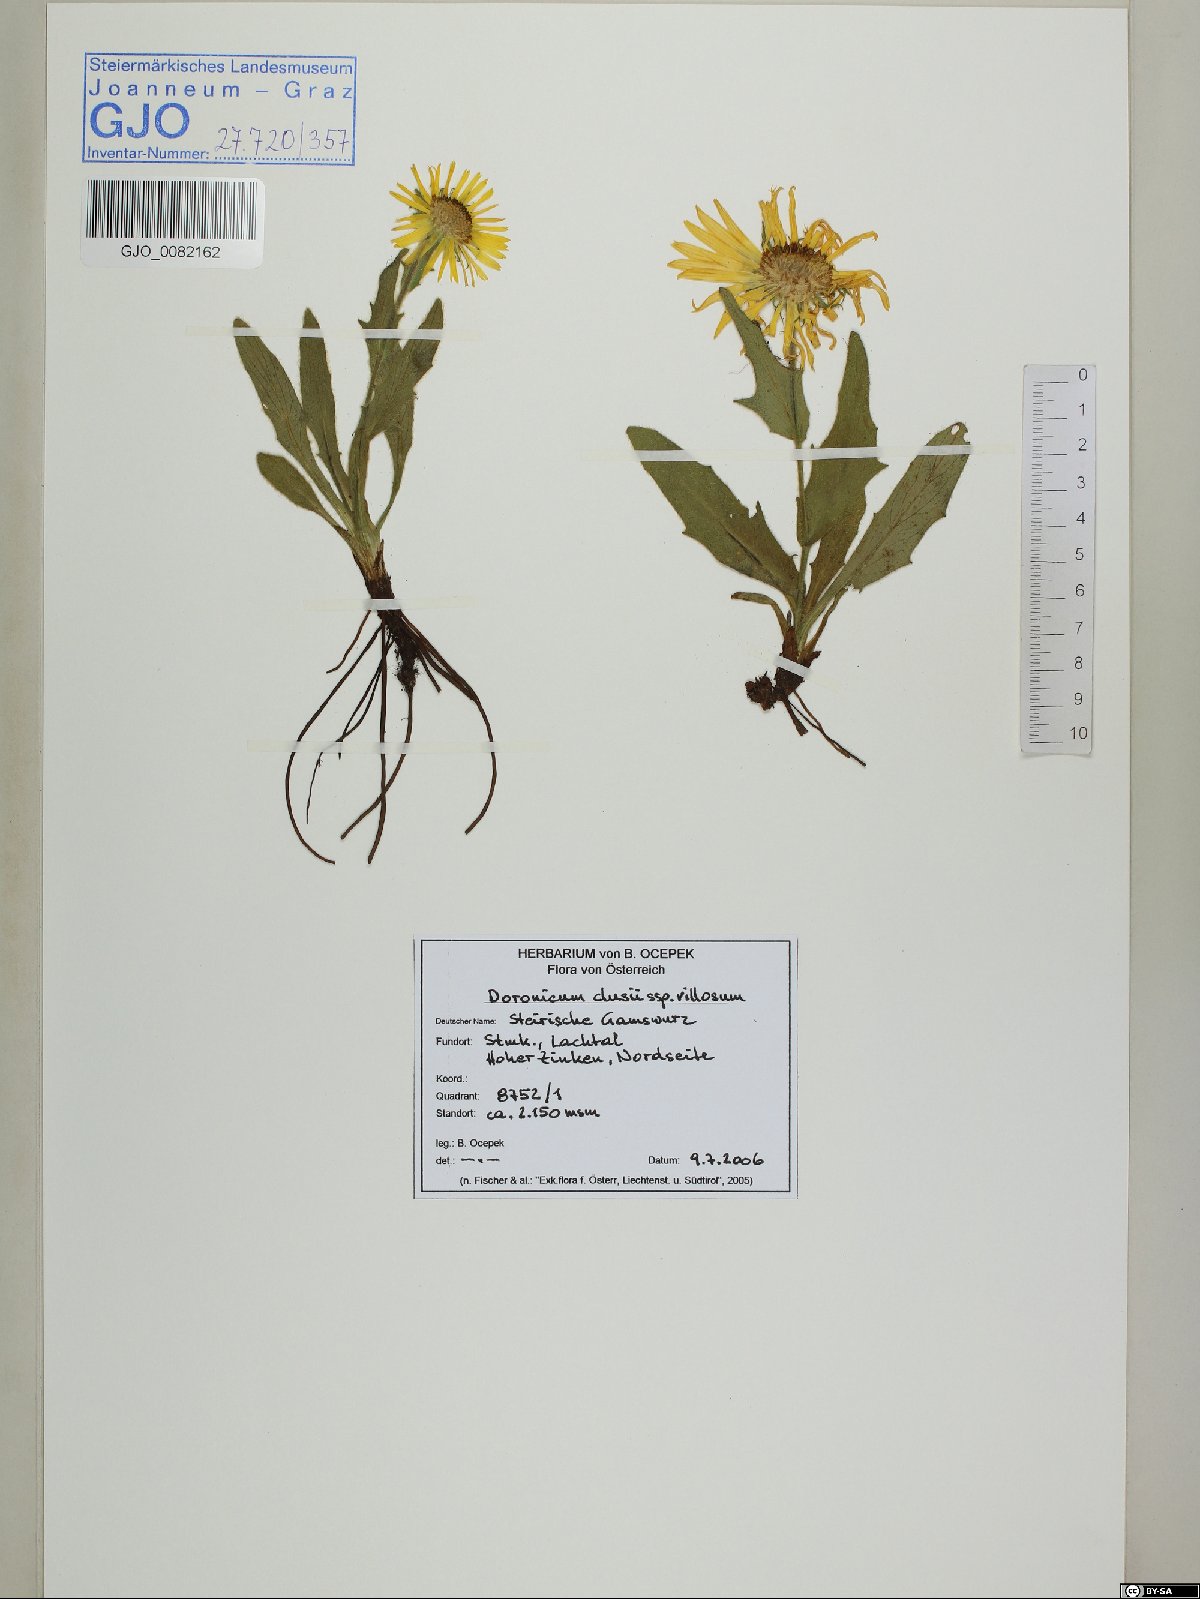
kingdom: Plantae
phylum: Tracheophyta
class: Magnoliopsida
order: Asterales
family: Asteraceae
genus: Doronicum
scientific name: Doronicum clusii
